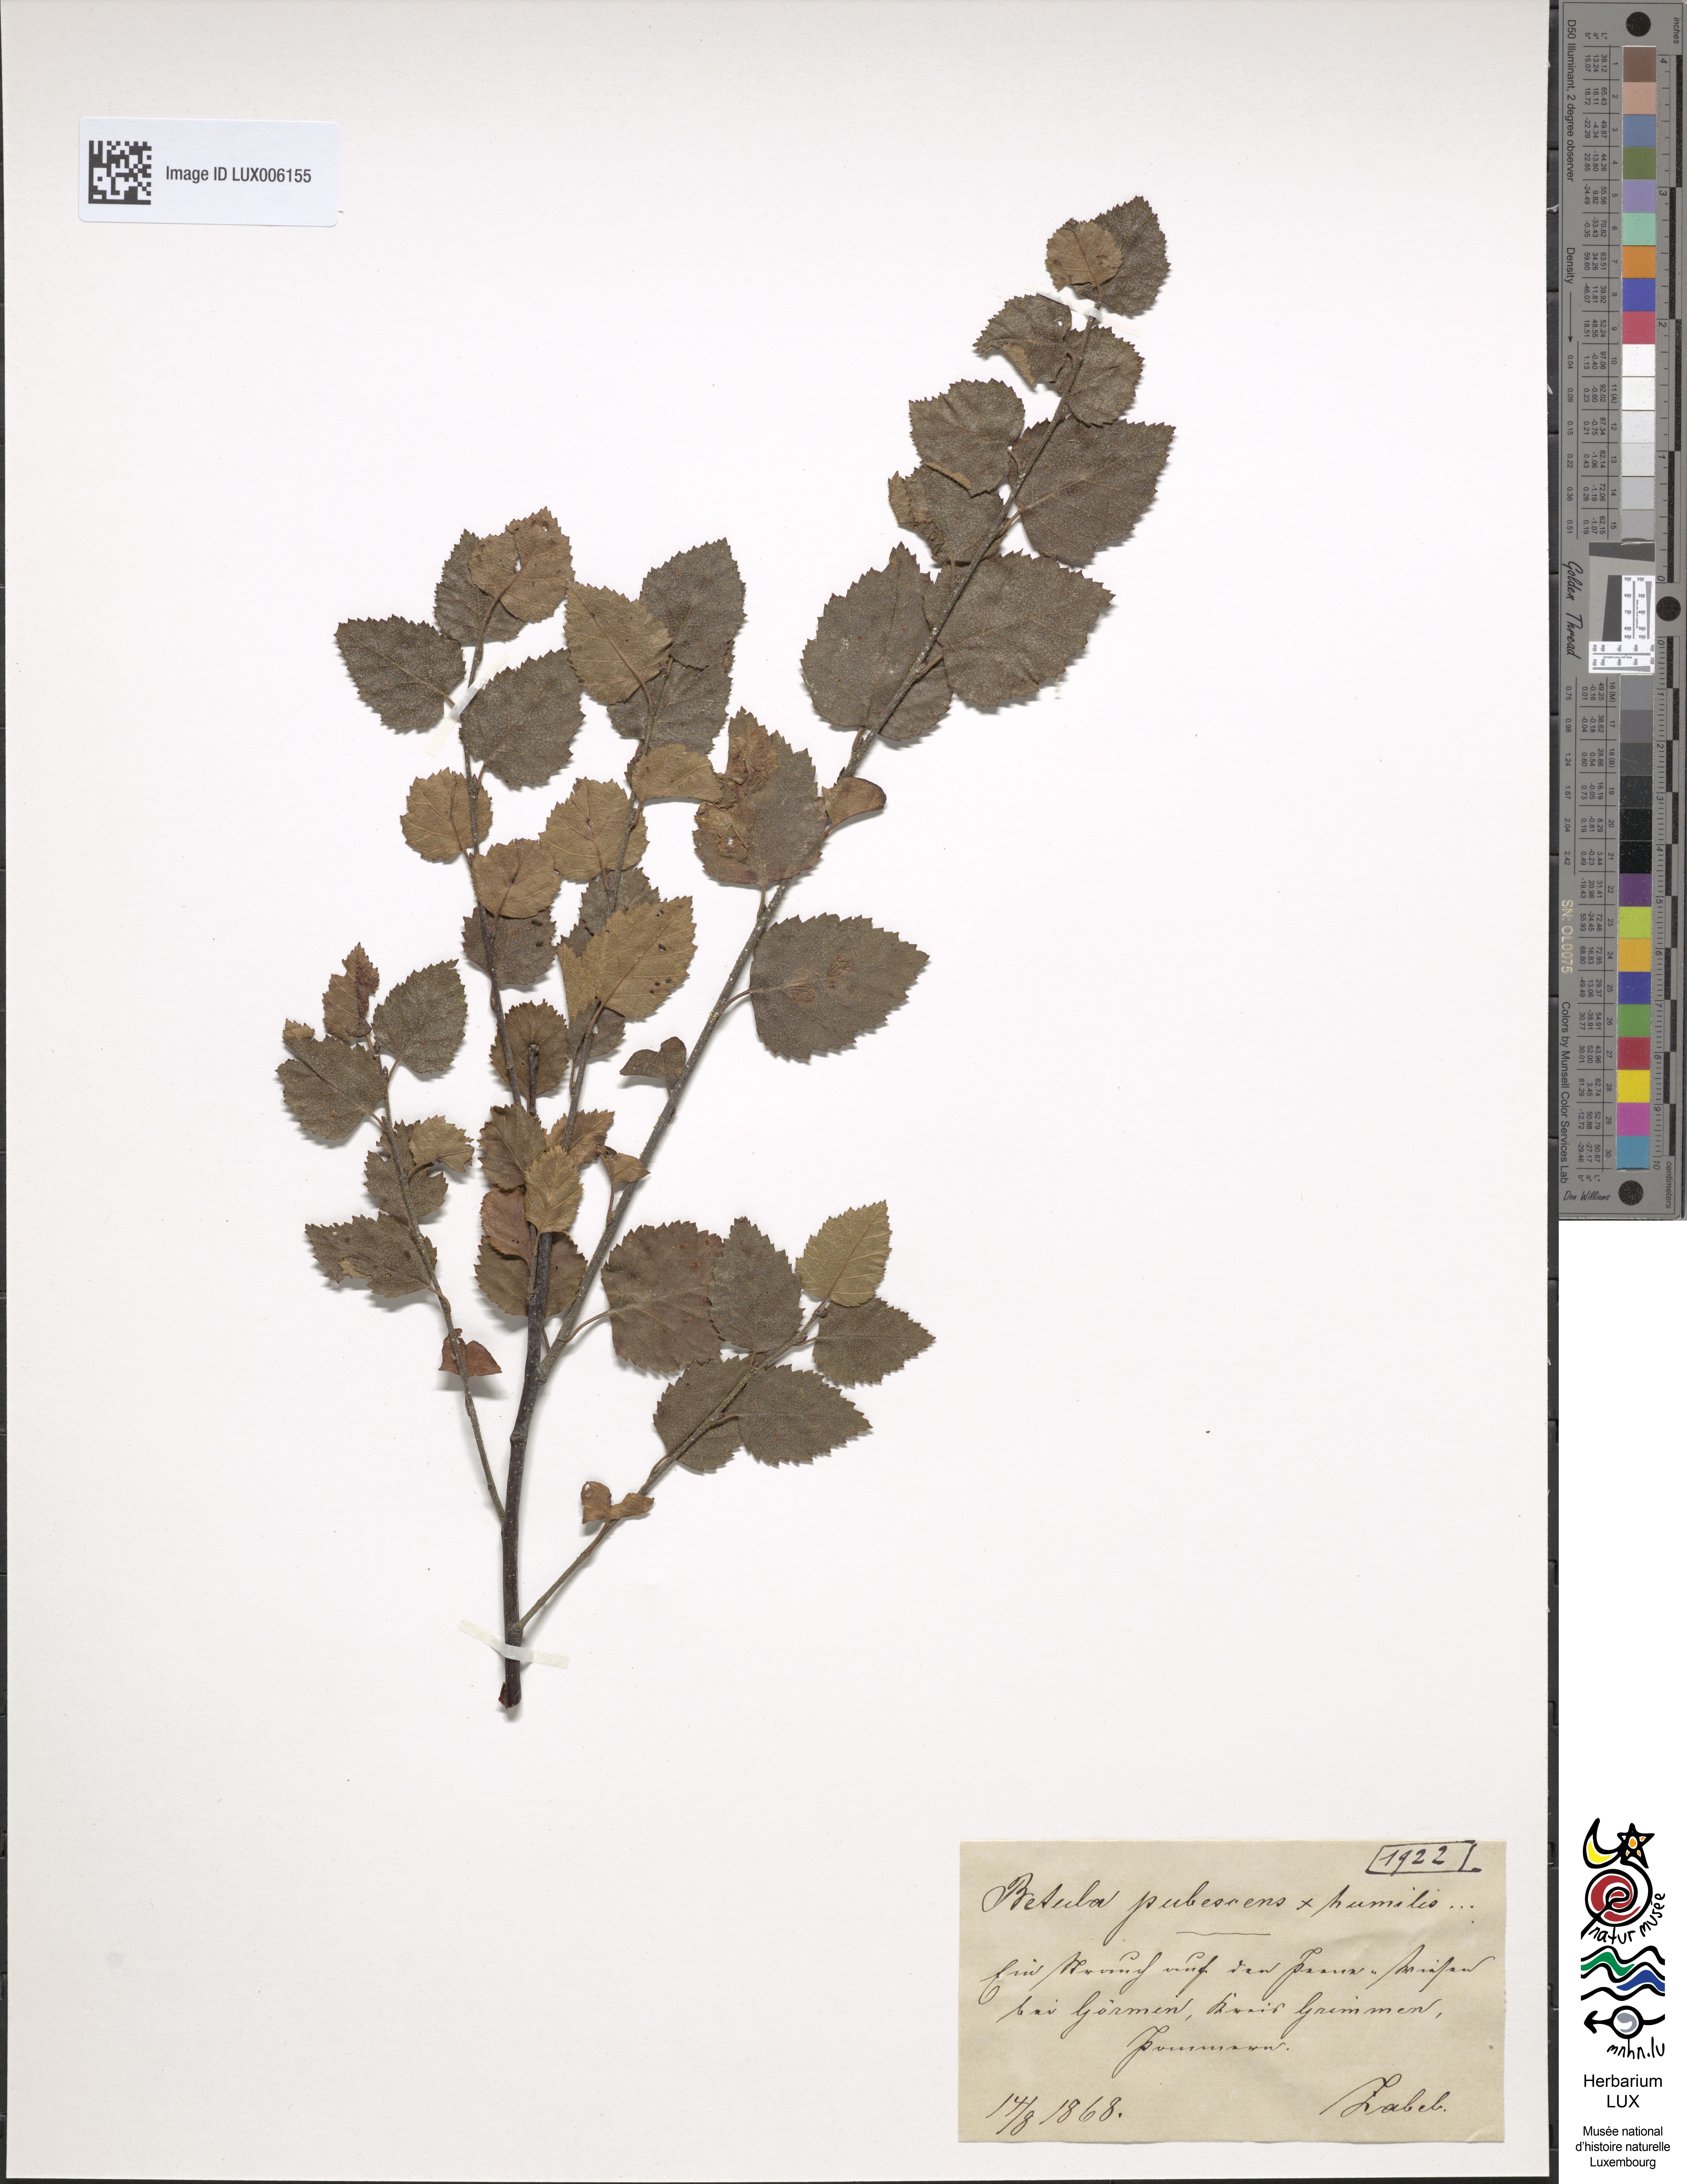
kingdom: Plantae
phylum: Tracheophyta
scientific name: Tracheophyta
